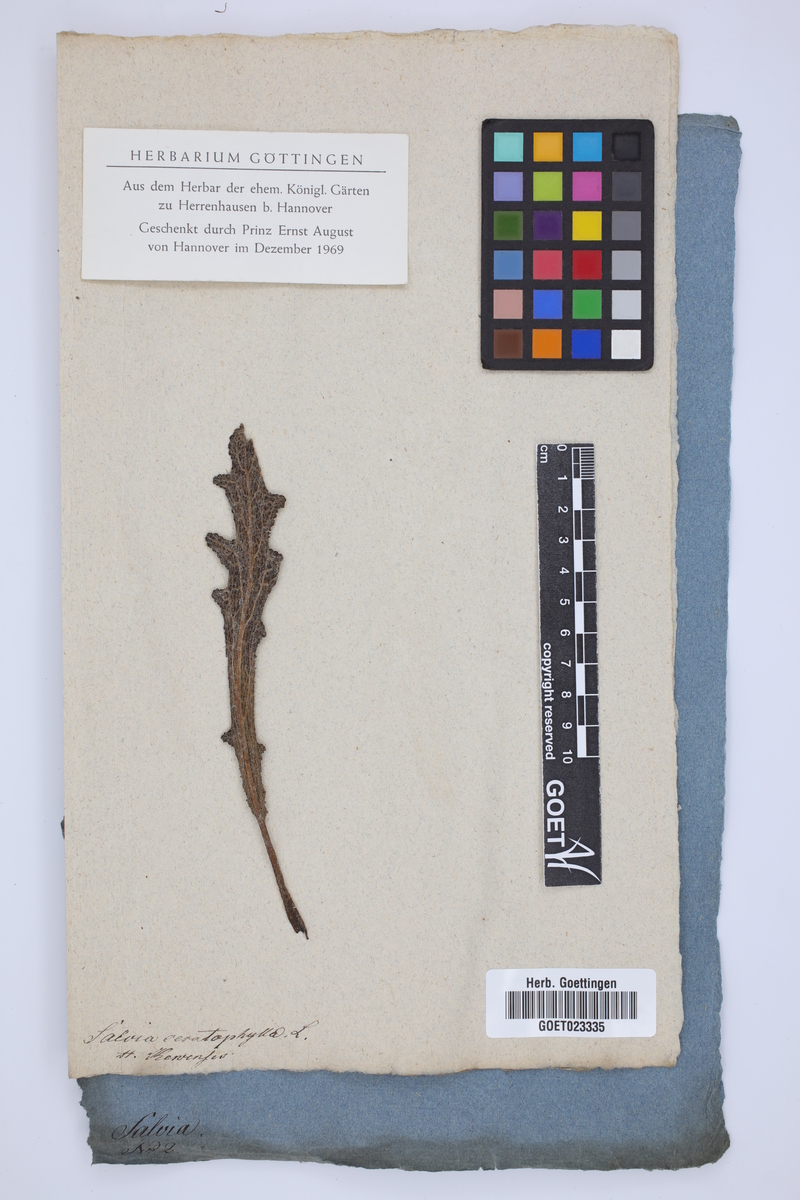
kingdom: Plantae
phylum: Tracheophyta
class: Magnoliopsida
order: Lamiales
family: Lamiaceae
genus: Salvia
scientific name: Salvia ceratophylla
